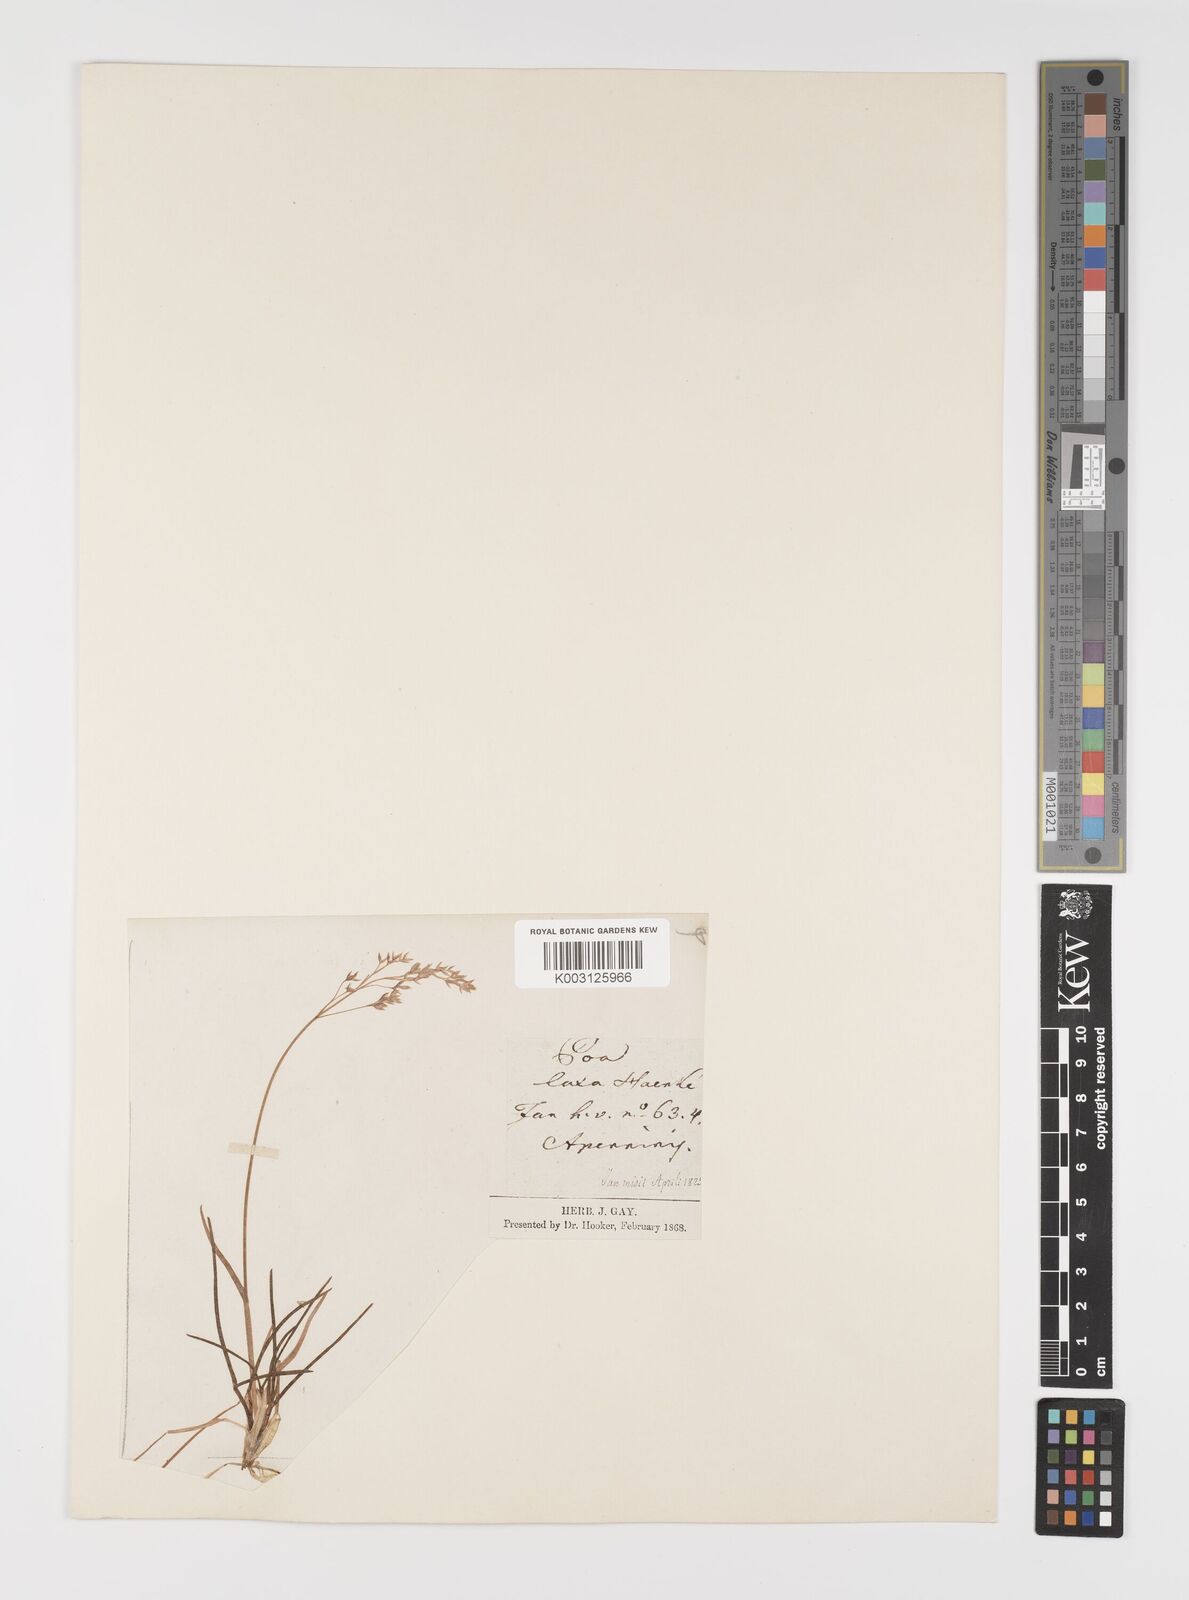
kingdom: Plantae
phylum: Tracheophyta
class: Liliopsida
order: Poales
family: Poaceae
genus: Poa
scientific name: Poa laxa
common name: Lax bluegrass
